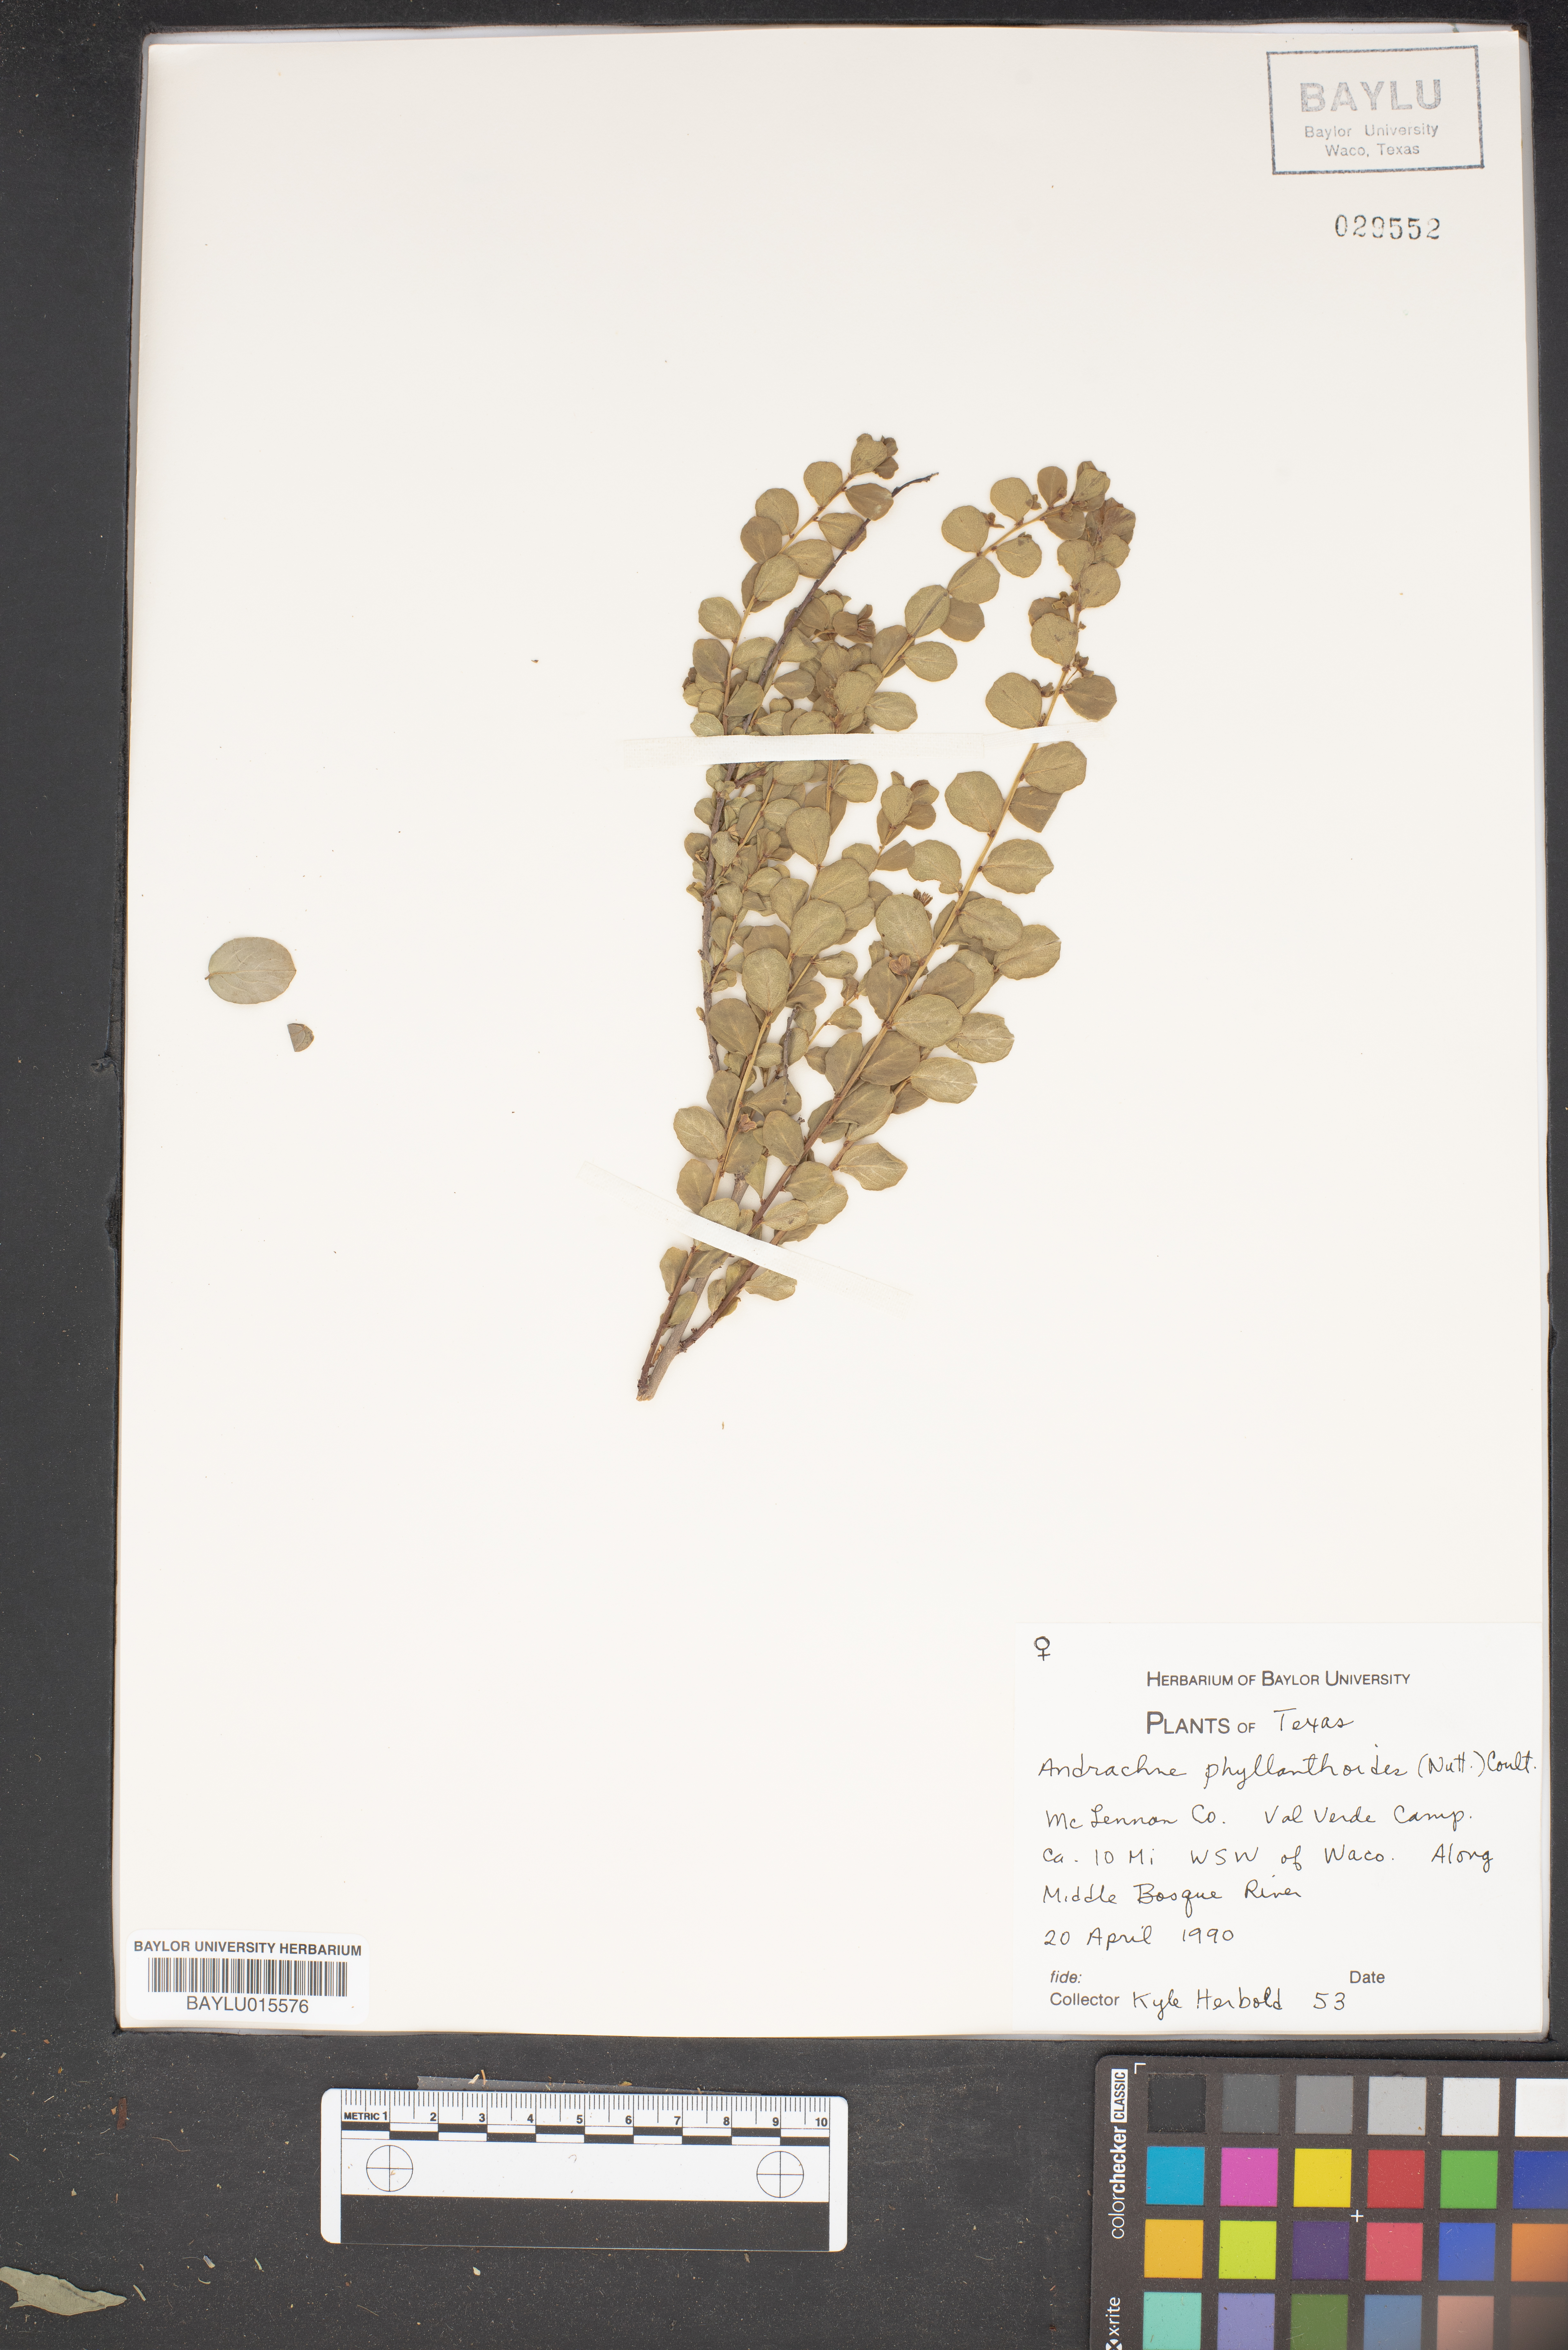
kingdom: Plantae
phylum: Tracheophyta
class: Magnoliopsida
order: Malpighiales
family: Phyllanthaceae
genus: Phyllanthopsis
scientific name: Phyllanthopsis phyllanthoides
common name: Missouri maidenbush
